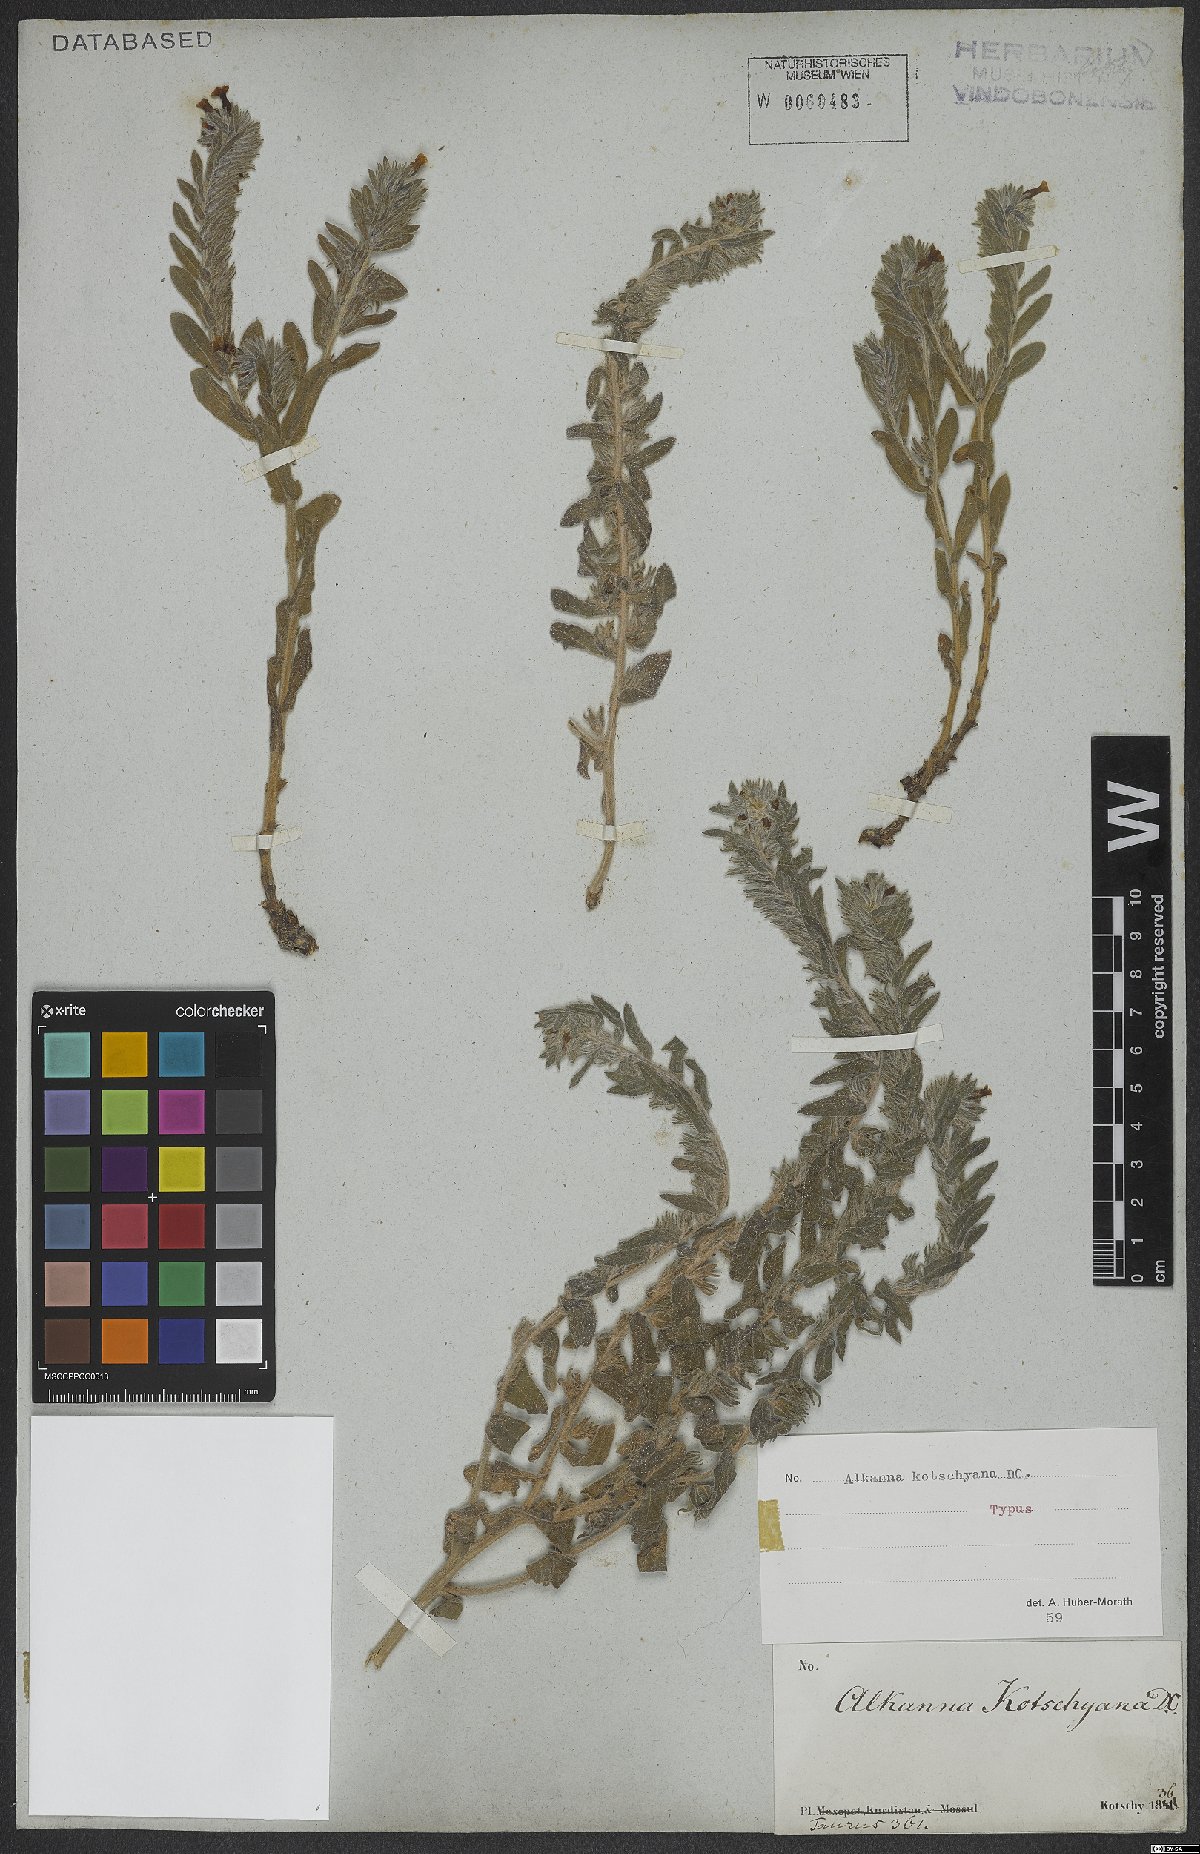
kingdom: Plantae
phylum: Tracheophyta
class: Magnoliopsida
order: Boraginales
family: Boraginaceae
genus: Alkanna
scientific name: Alkanna kotschyana
